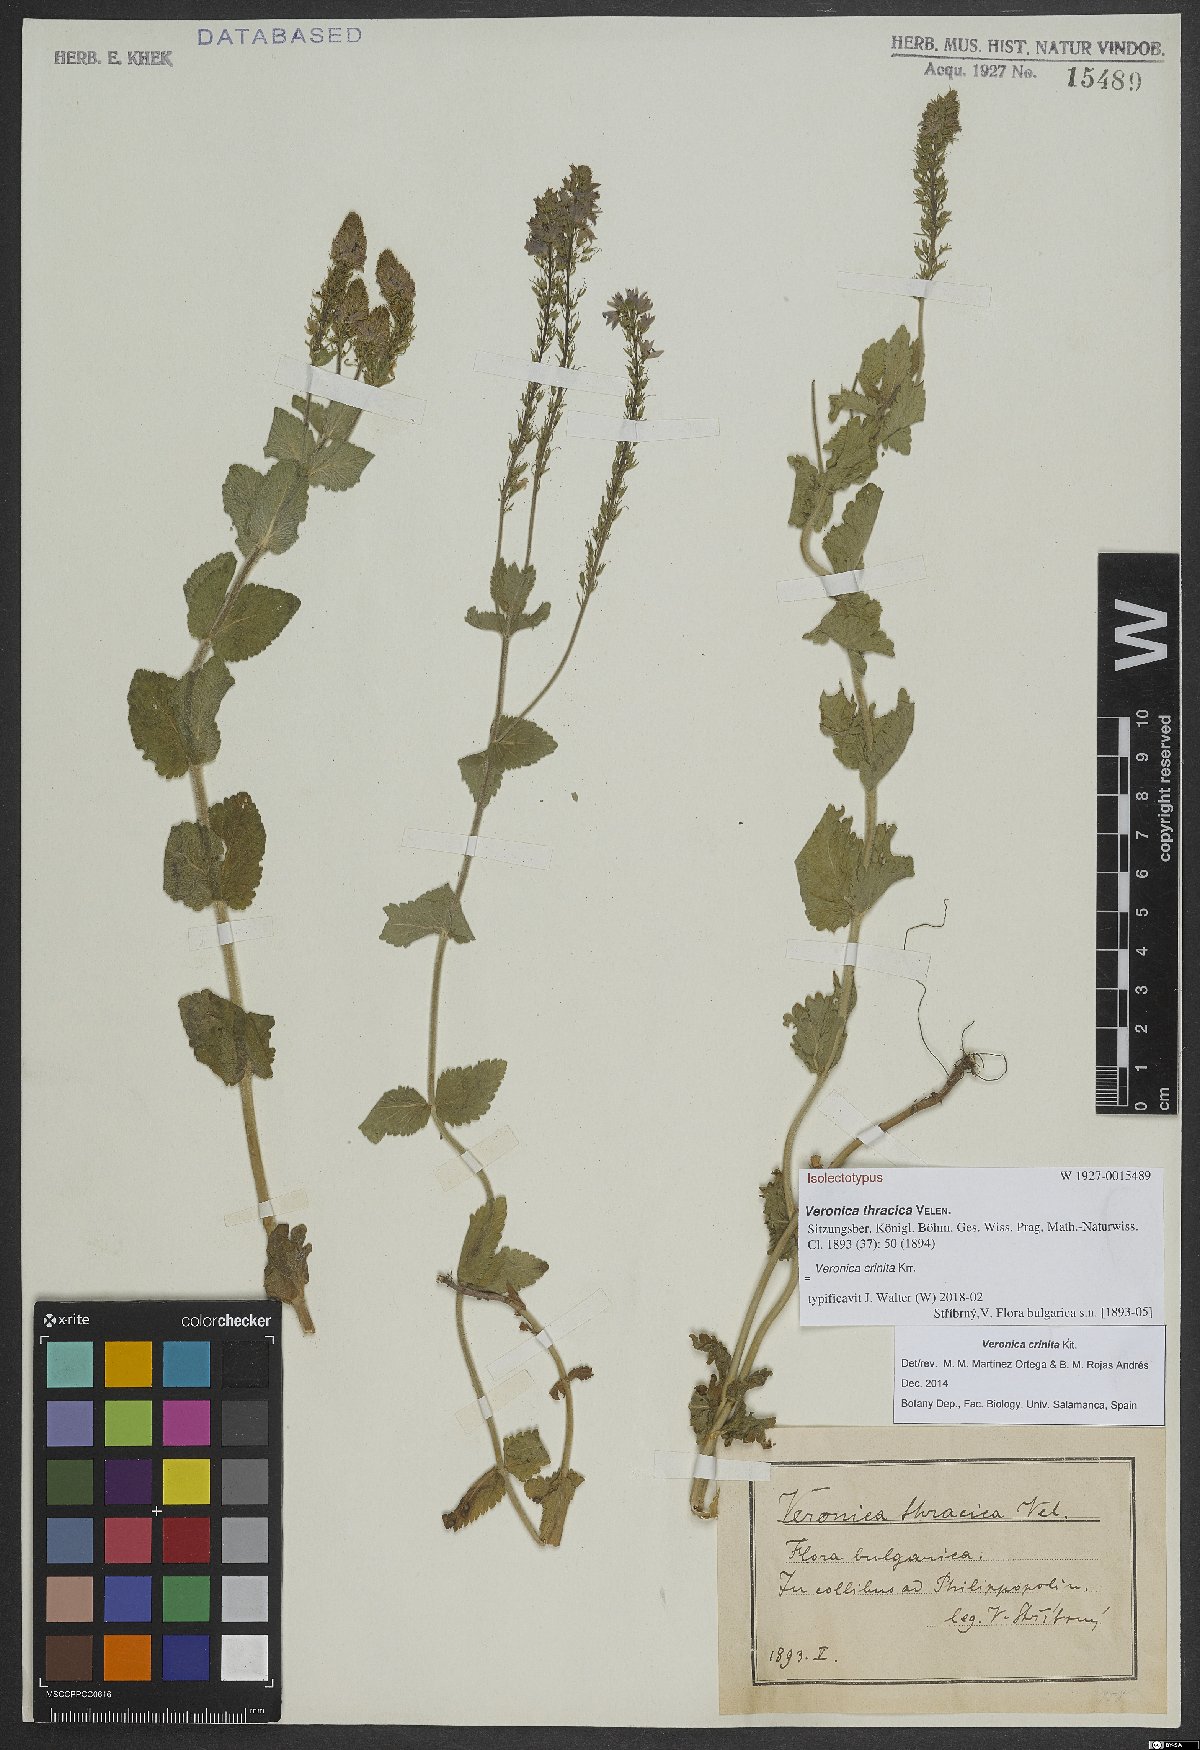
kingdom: Plantae
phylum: Tracheophyta
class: Magnoliopsida
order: Lamiales
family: Plantaginaceae
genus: Veronica
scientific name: Veronica teucrium
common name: Large speedwell
